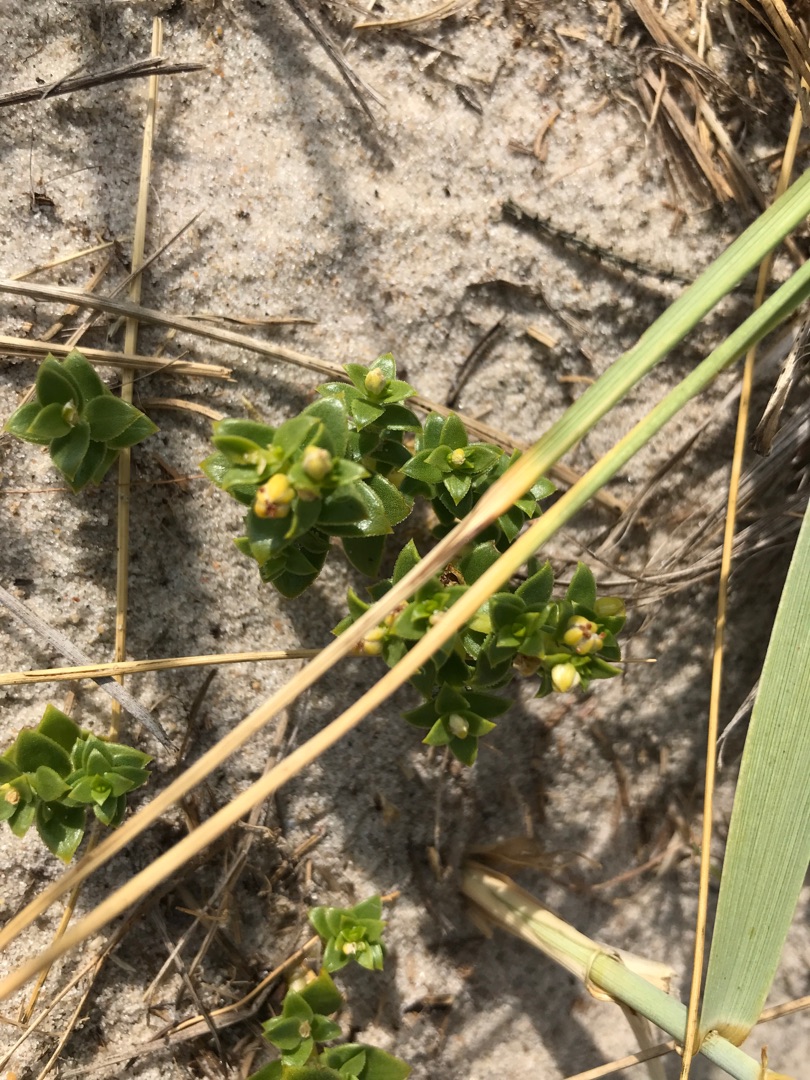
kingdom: Plantae
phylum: Tracheophyta
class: Magnoliopsida
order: Caryophyllales
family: Caryophyllaceae
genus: Honckenya
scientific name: Honckenya peploides
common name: Strandarve
